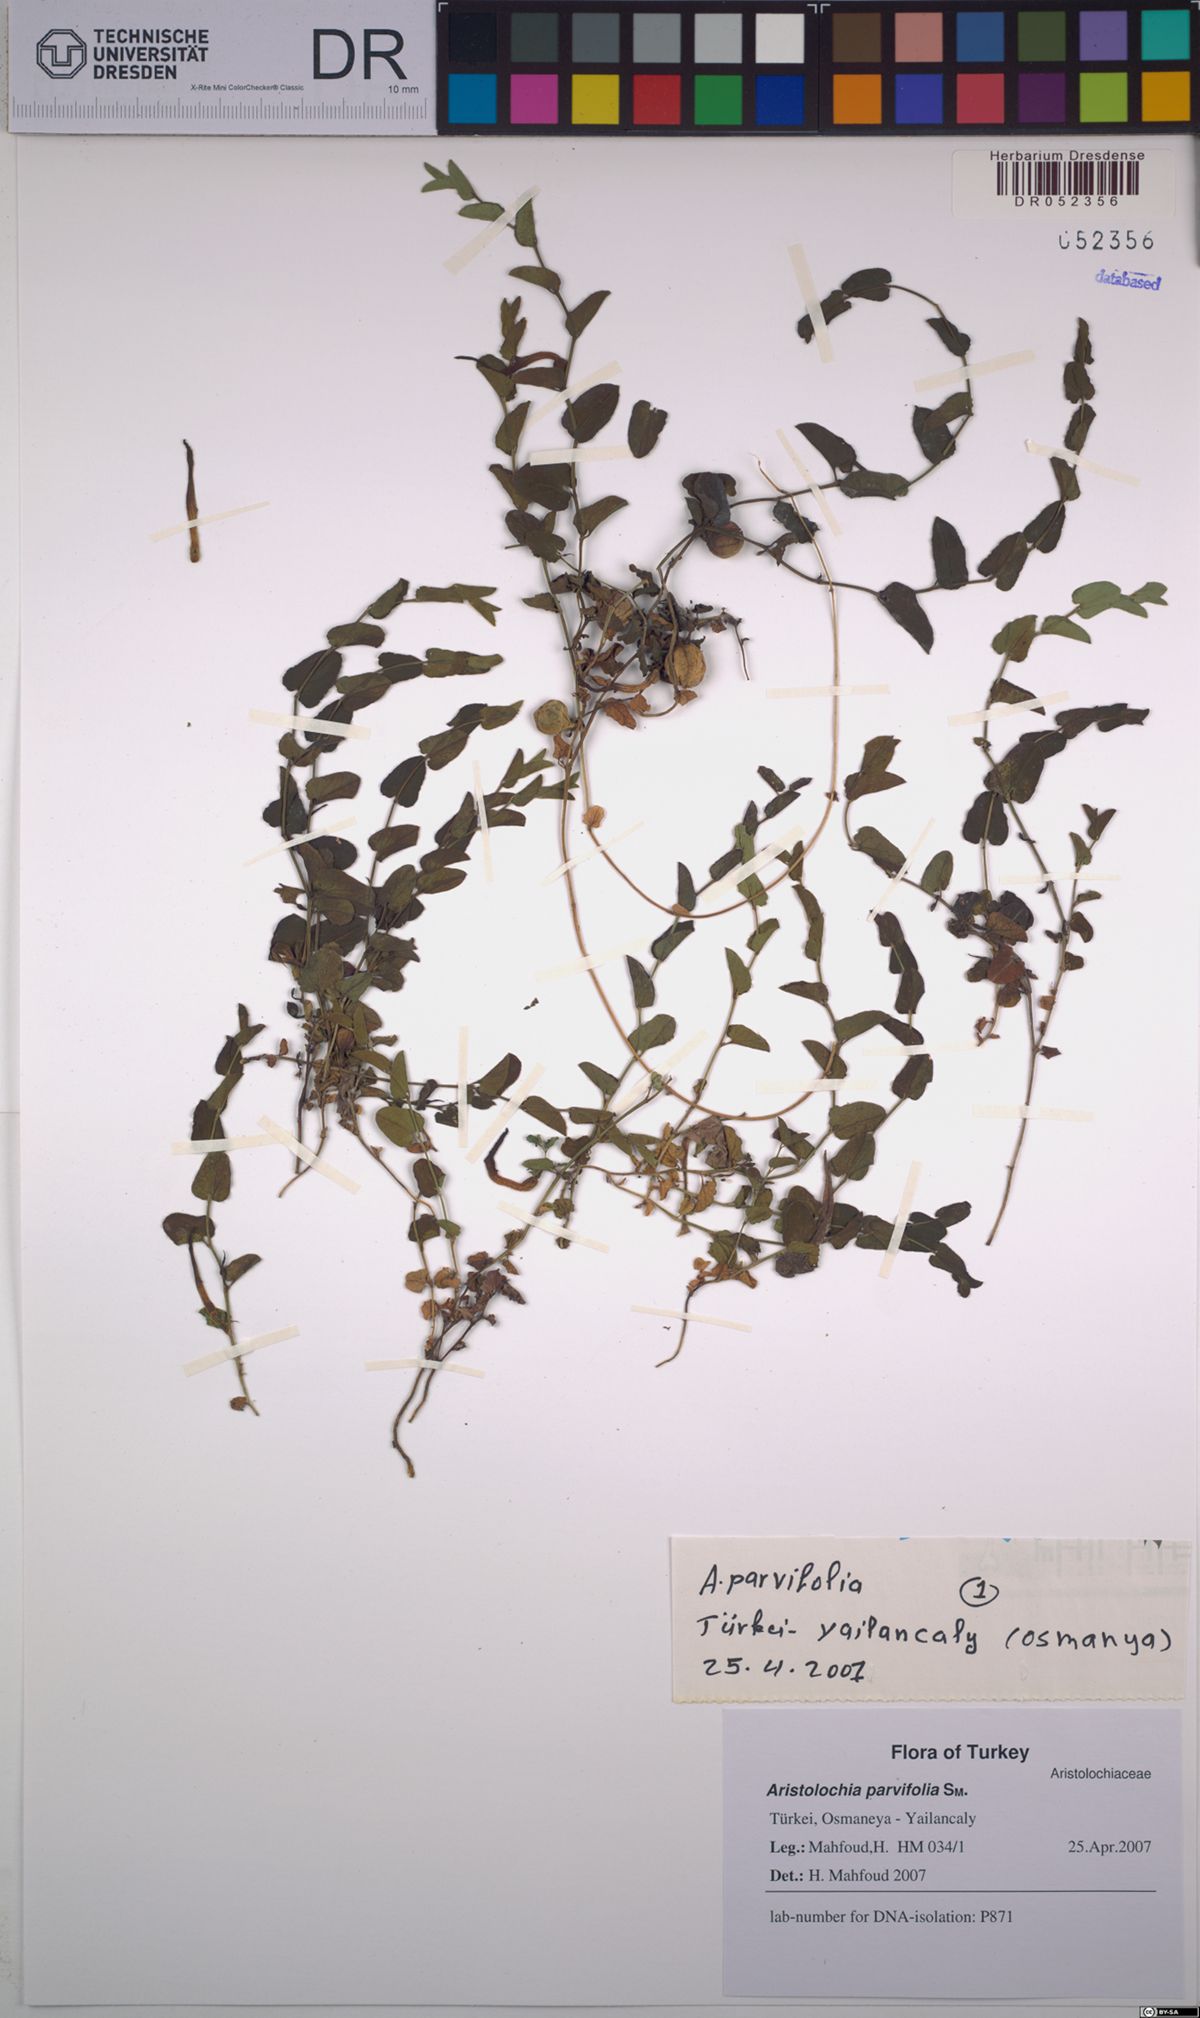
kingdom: Plantae
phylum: Tracheophyta
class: Magnoliopsida
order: Piperales
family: Aristolochiaceae
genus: Aristolochia
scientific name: Aristolochia parvifolia
